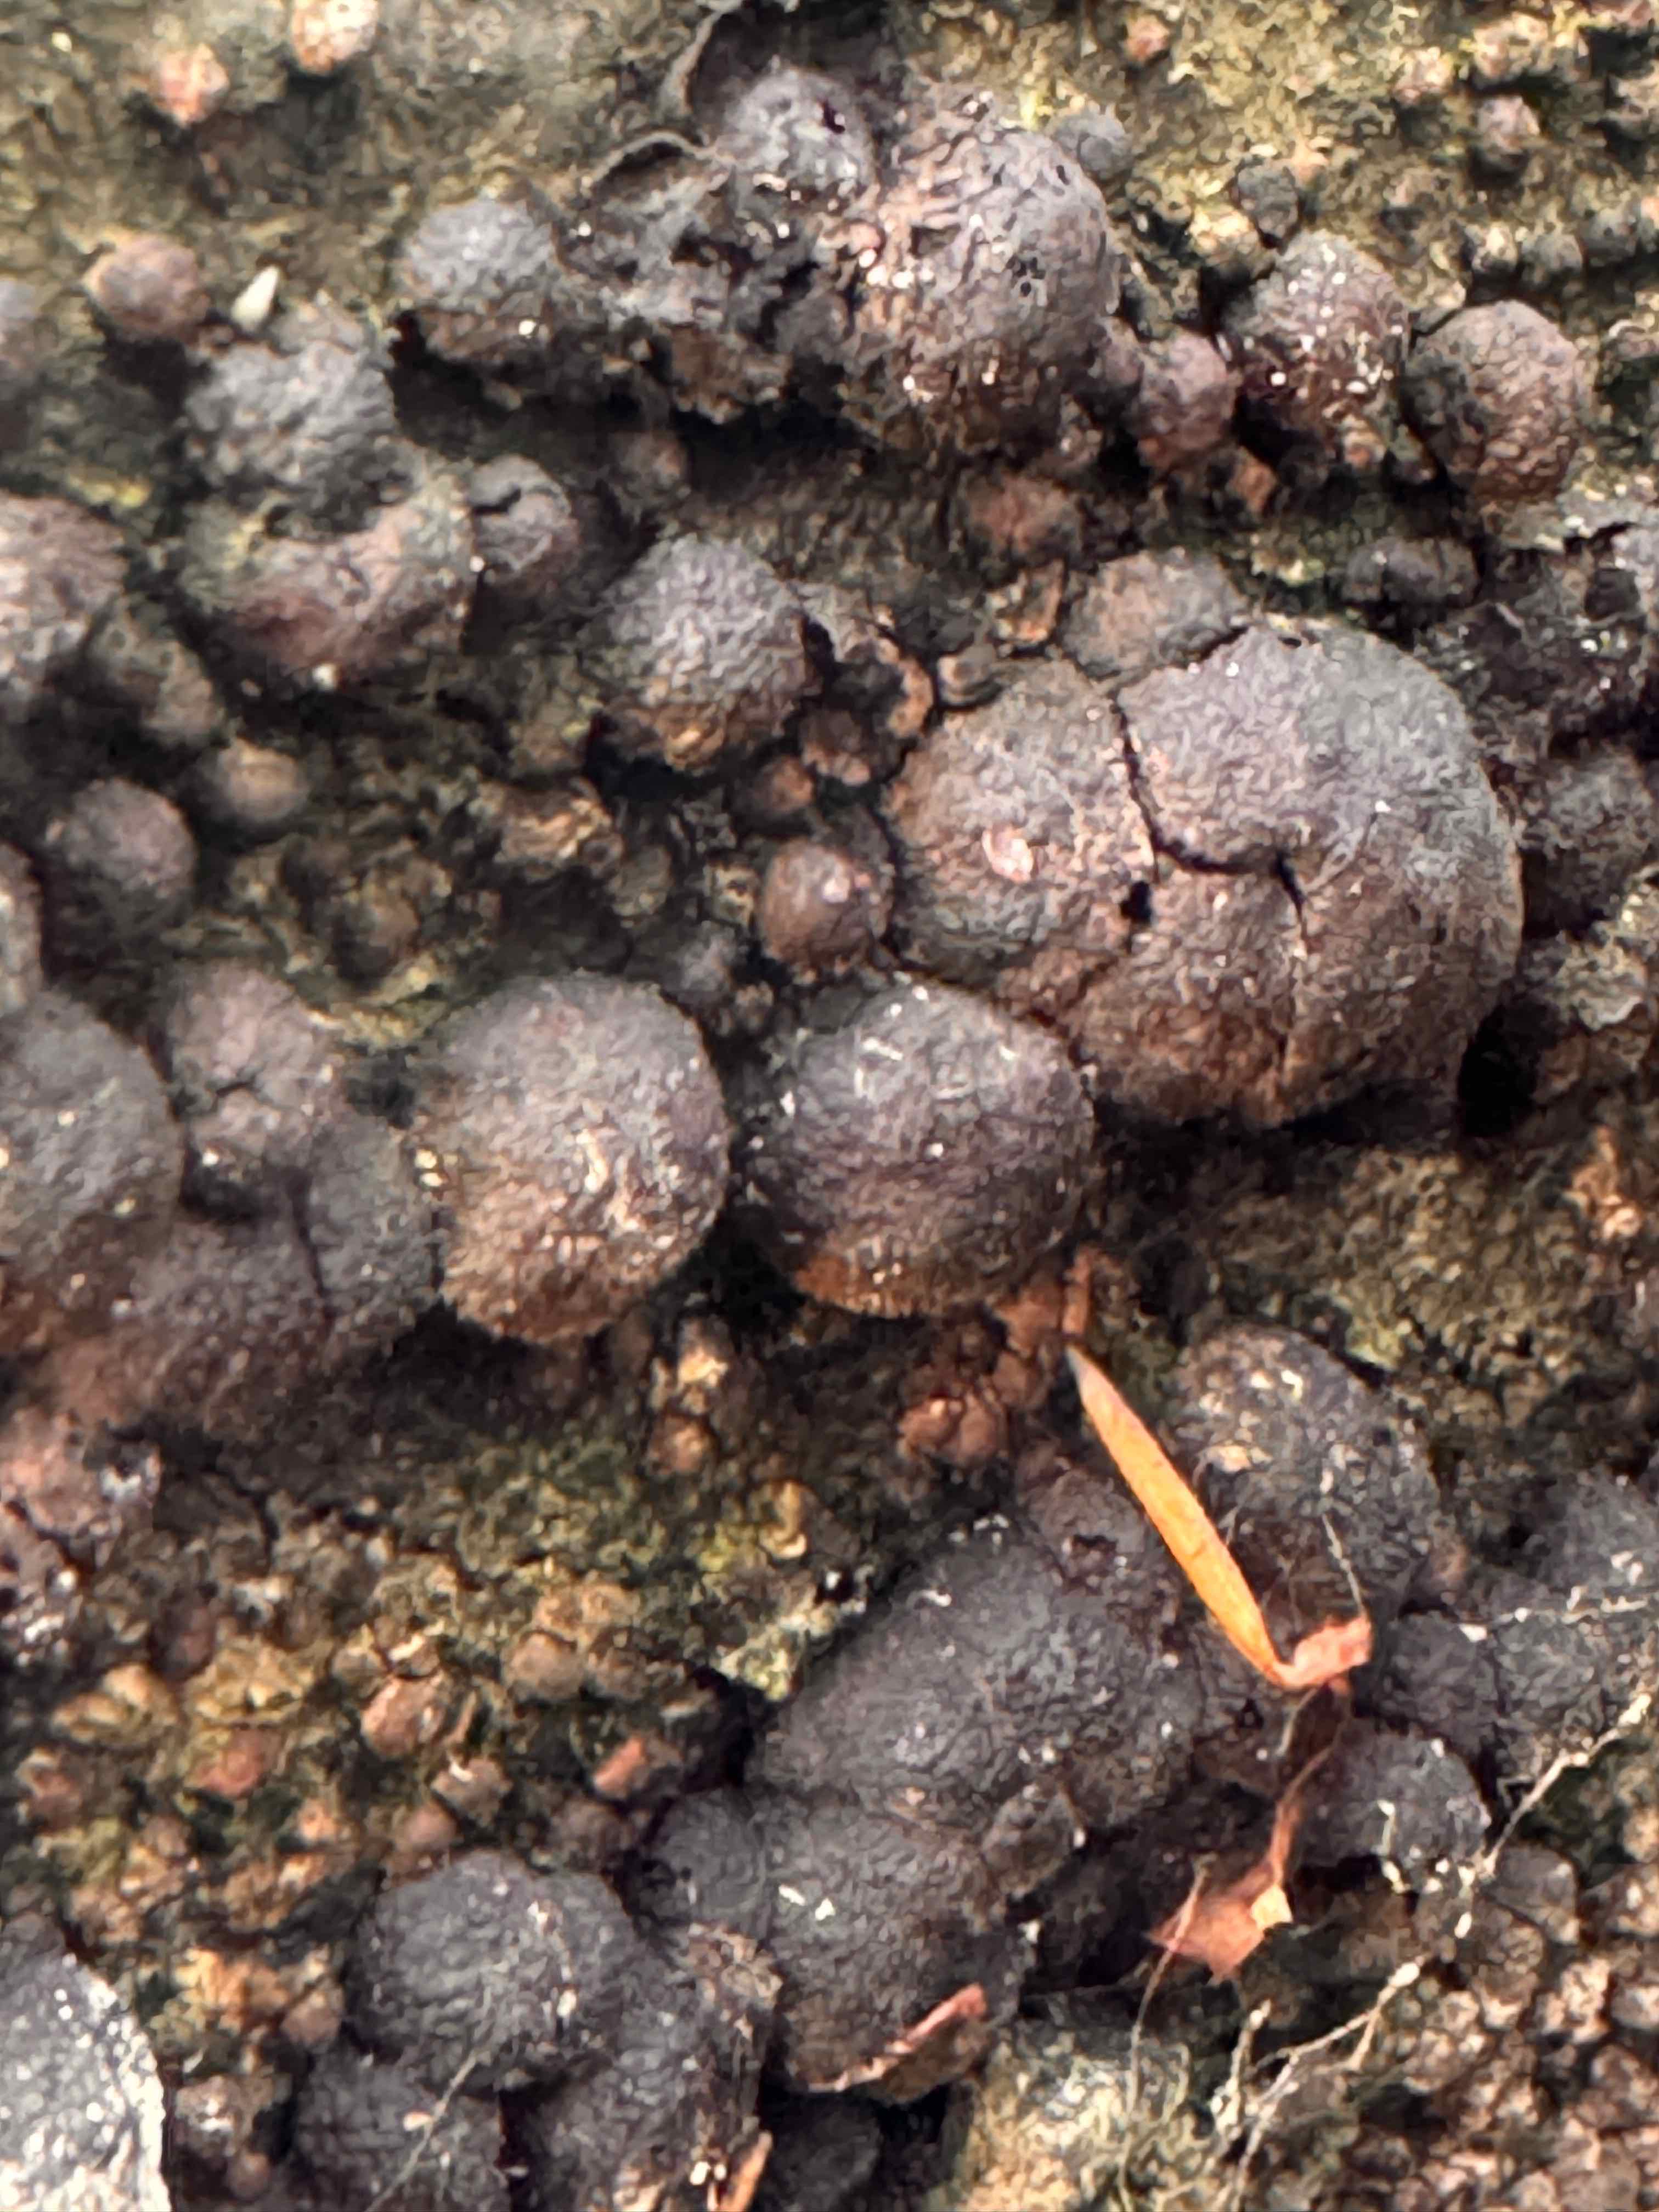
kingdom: Fungi
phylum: Ascomycota
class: Sordariomycetes
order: Xylariales
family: Hypoxylaceae
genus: Hypoxylon
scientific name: Hypoxylon fragiforme
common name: kuljordbær
